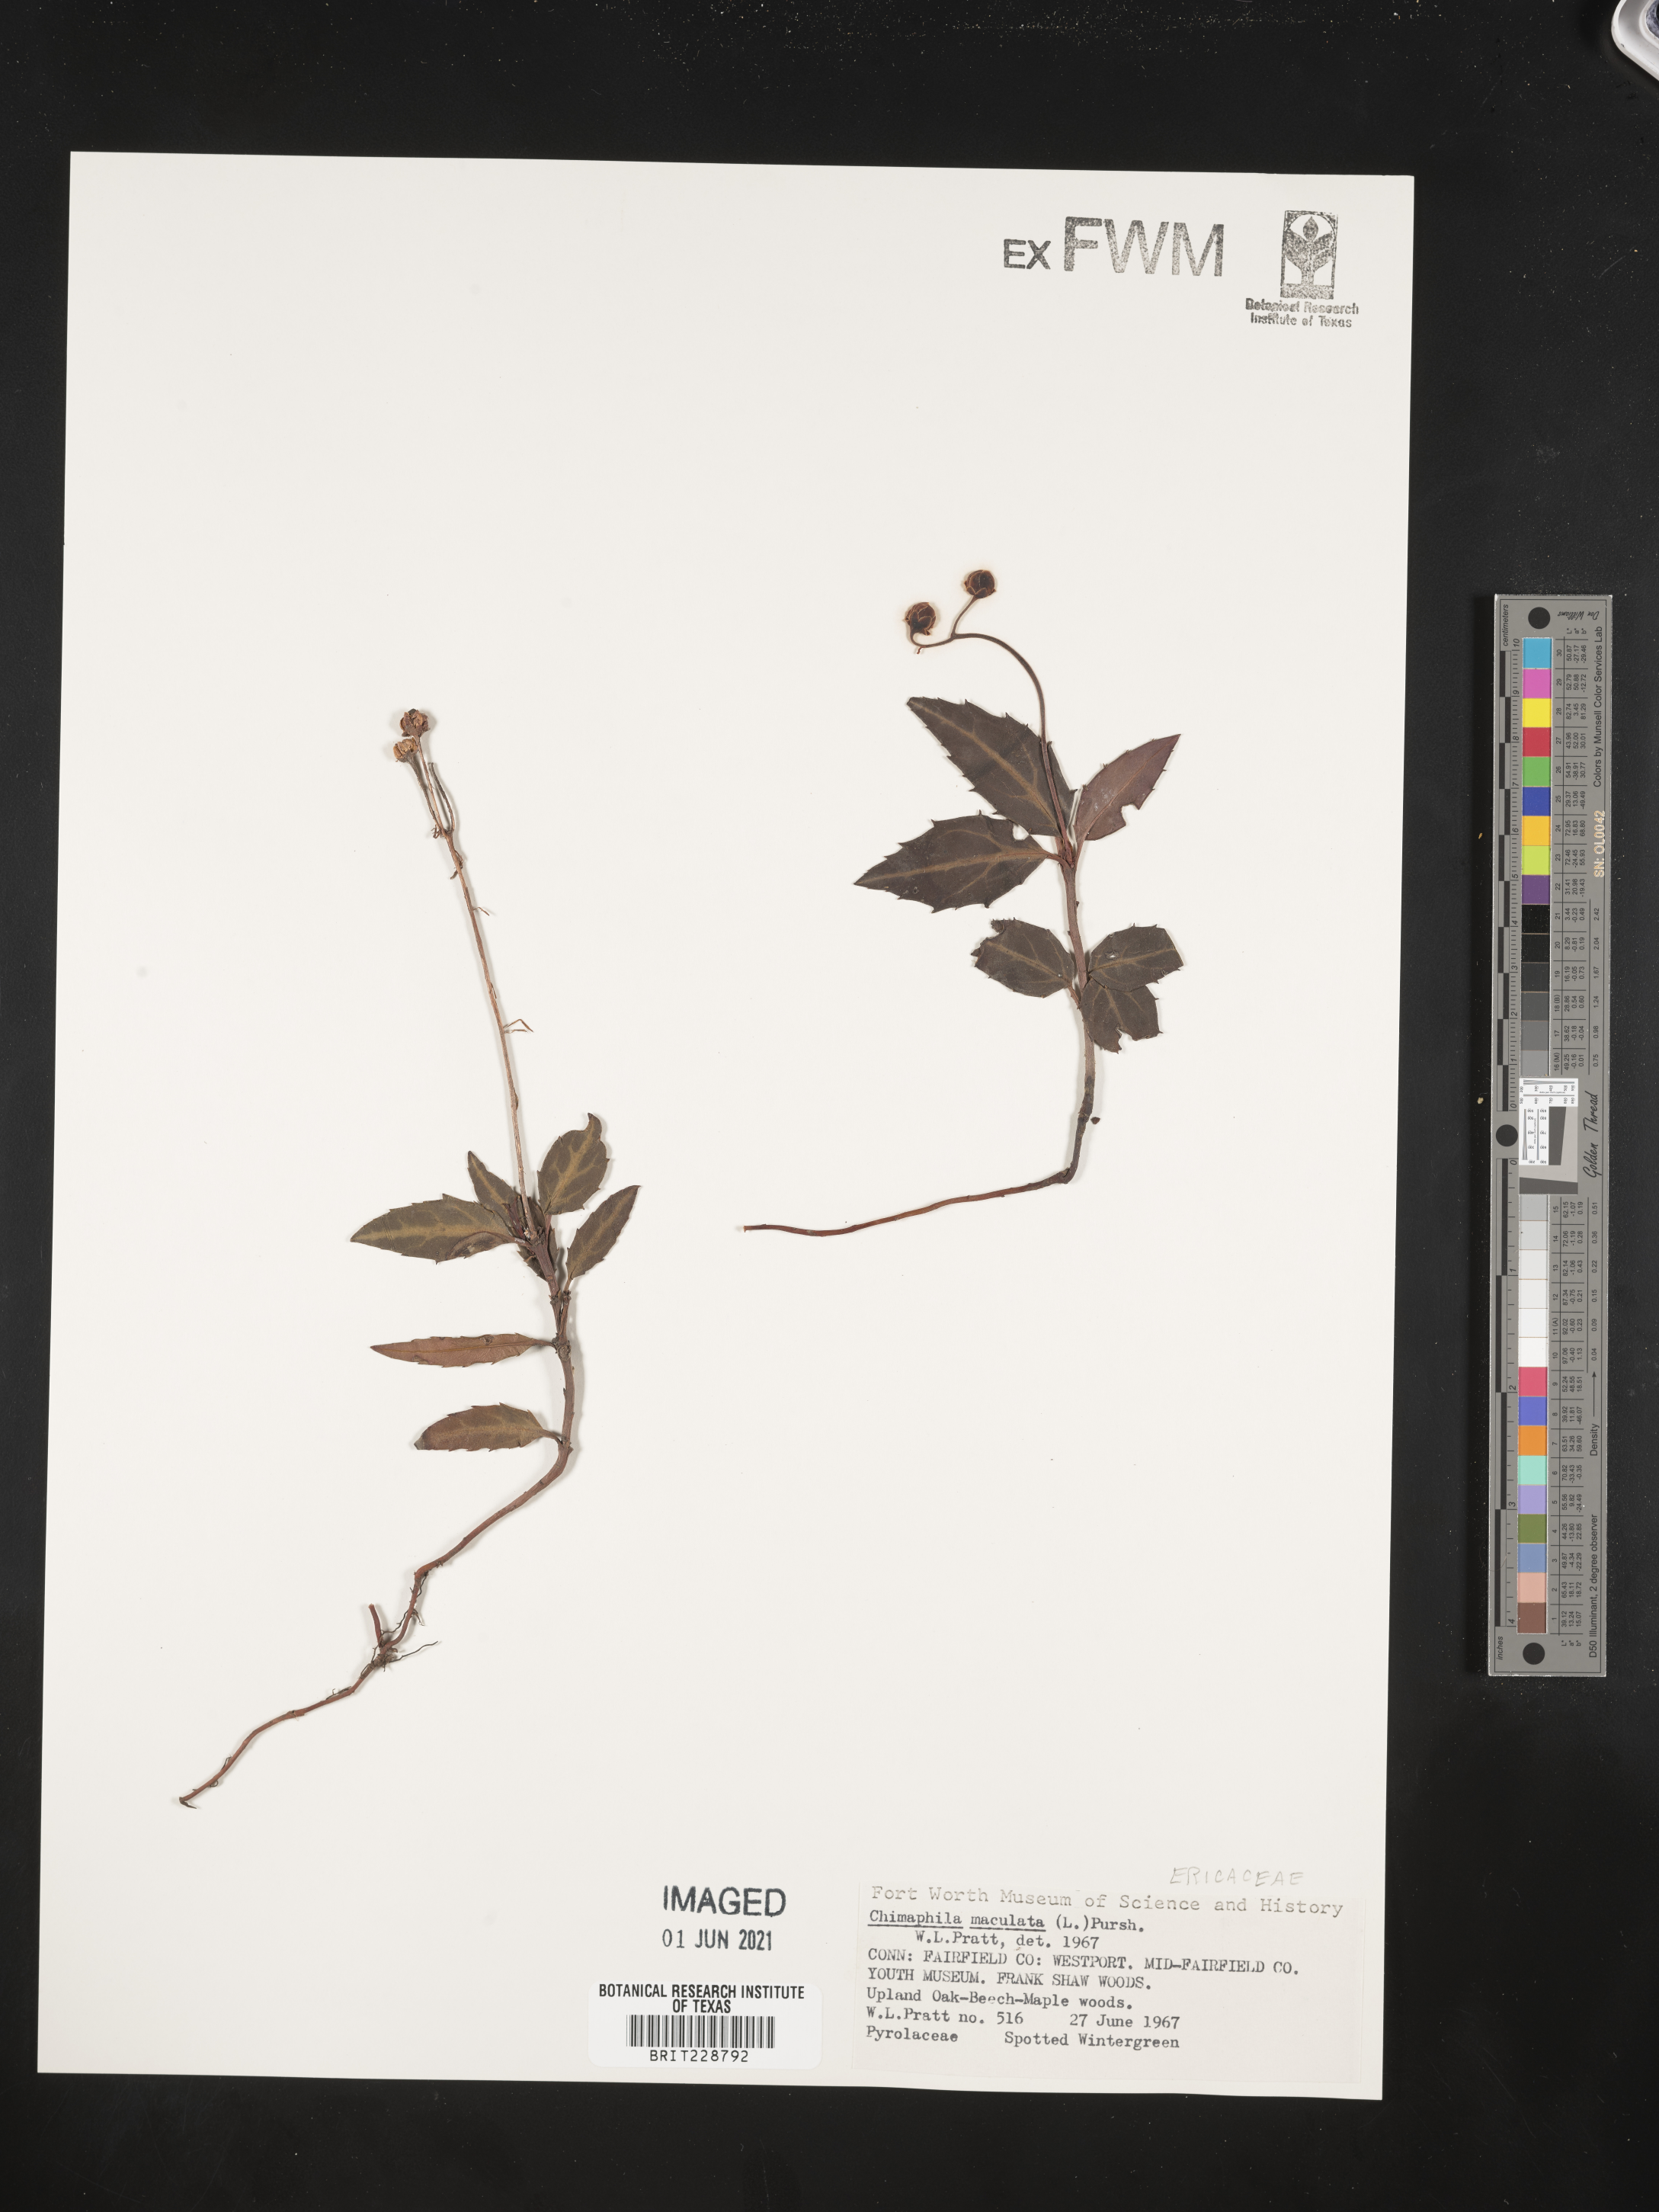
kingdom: Plantae
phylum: Tracheophyta
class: Magnoliopsida
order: Ericales
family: Ericaceae
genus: Chimaphila
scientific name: Chimaphila maculata
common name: Spotted pipsissewa
